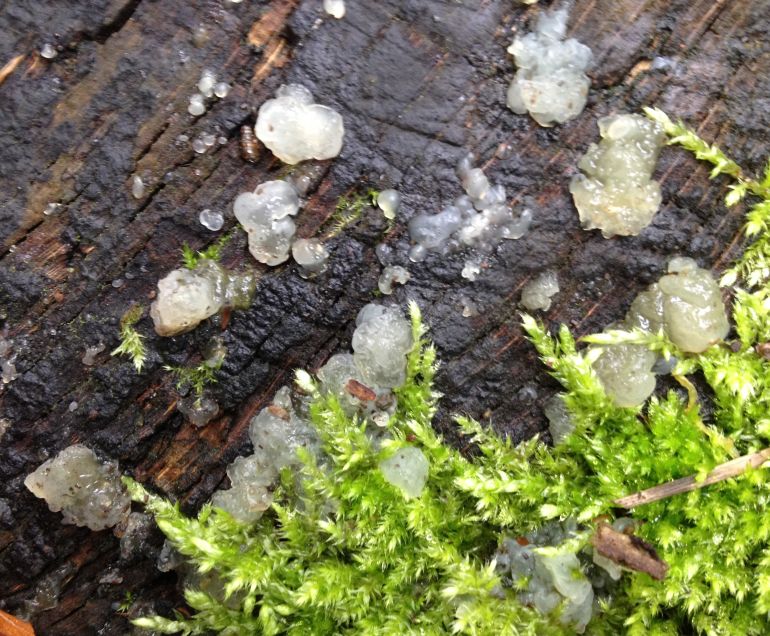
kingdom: Fungi
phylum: Basidiomycota
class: Agaricomycetes
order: Auriculariales
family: Hyaloriaceae
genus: Myxarium
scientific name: Myxarium nucleatum
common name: klar bævretop
